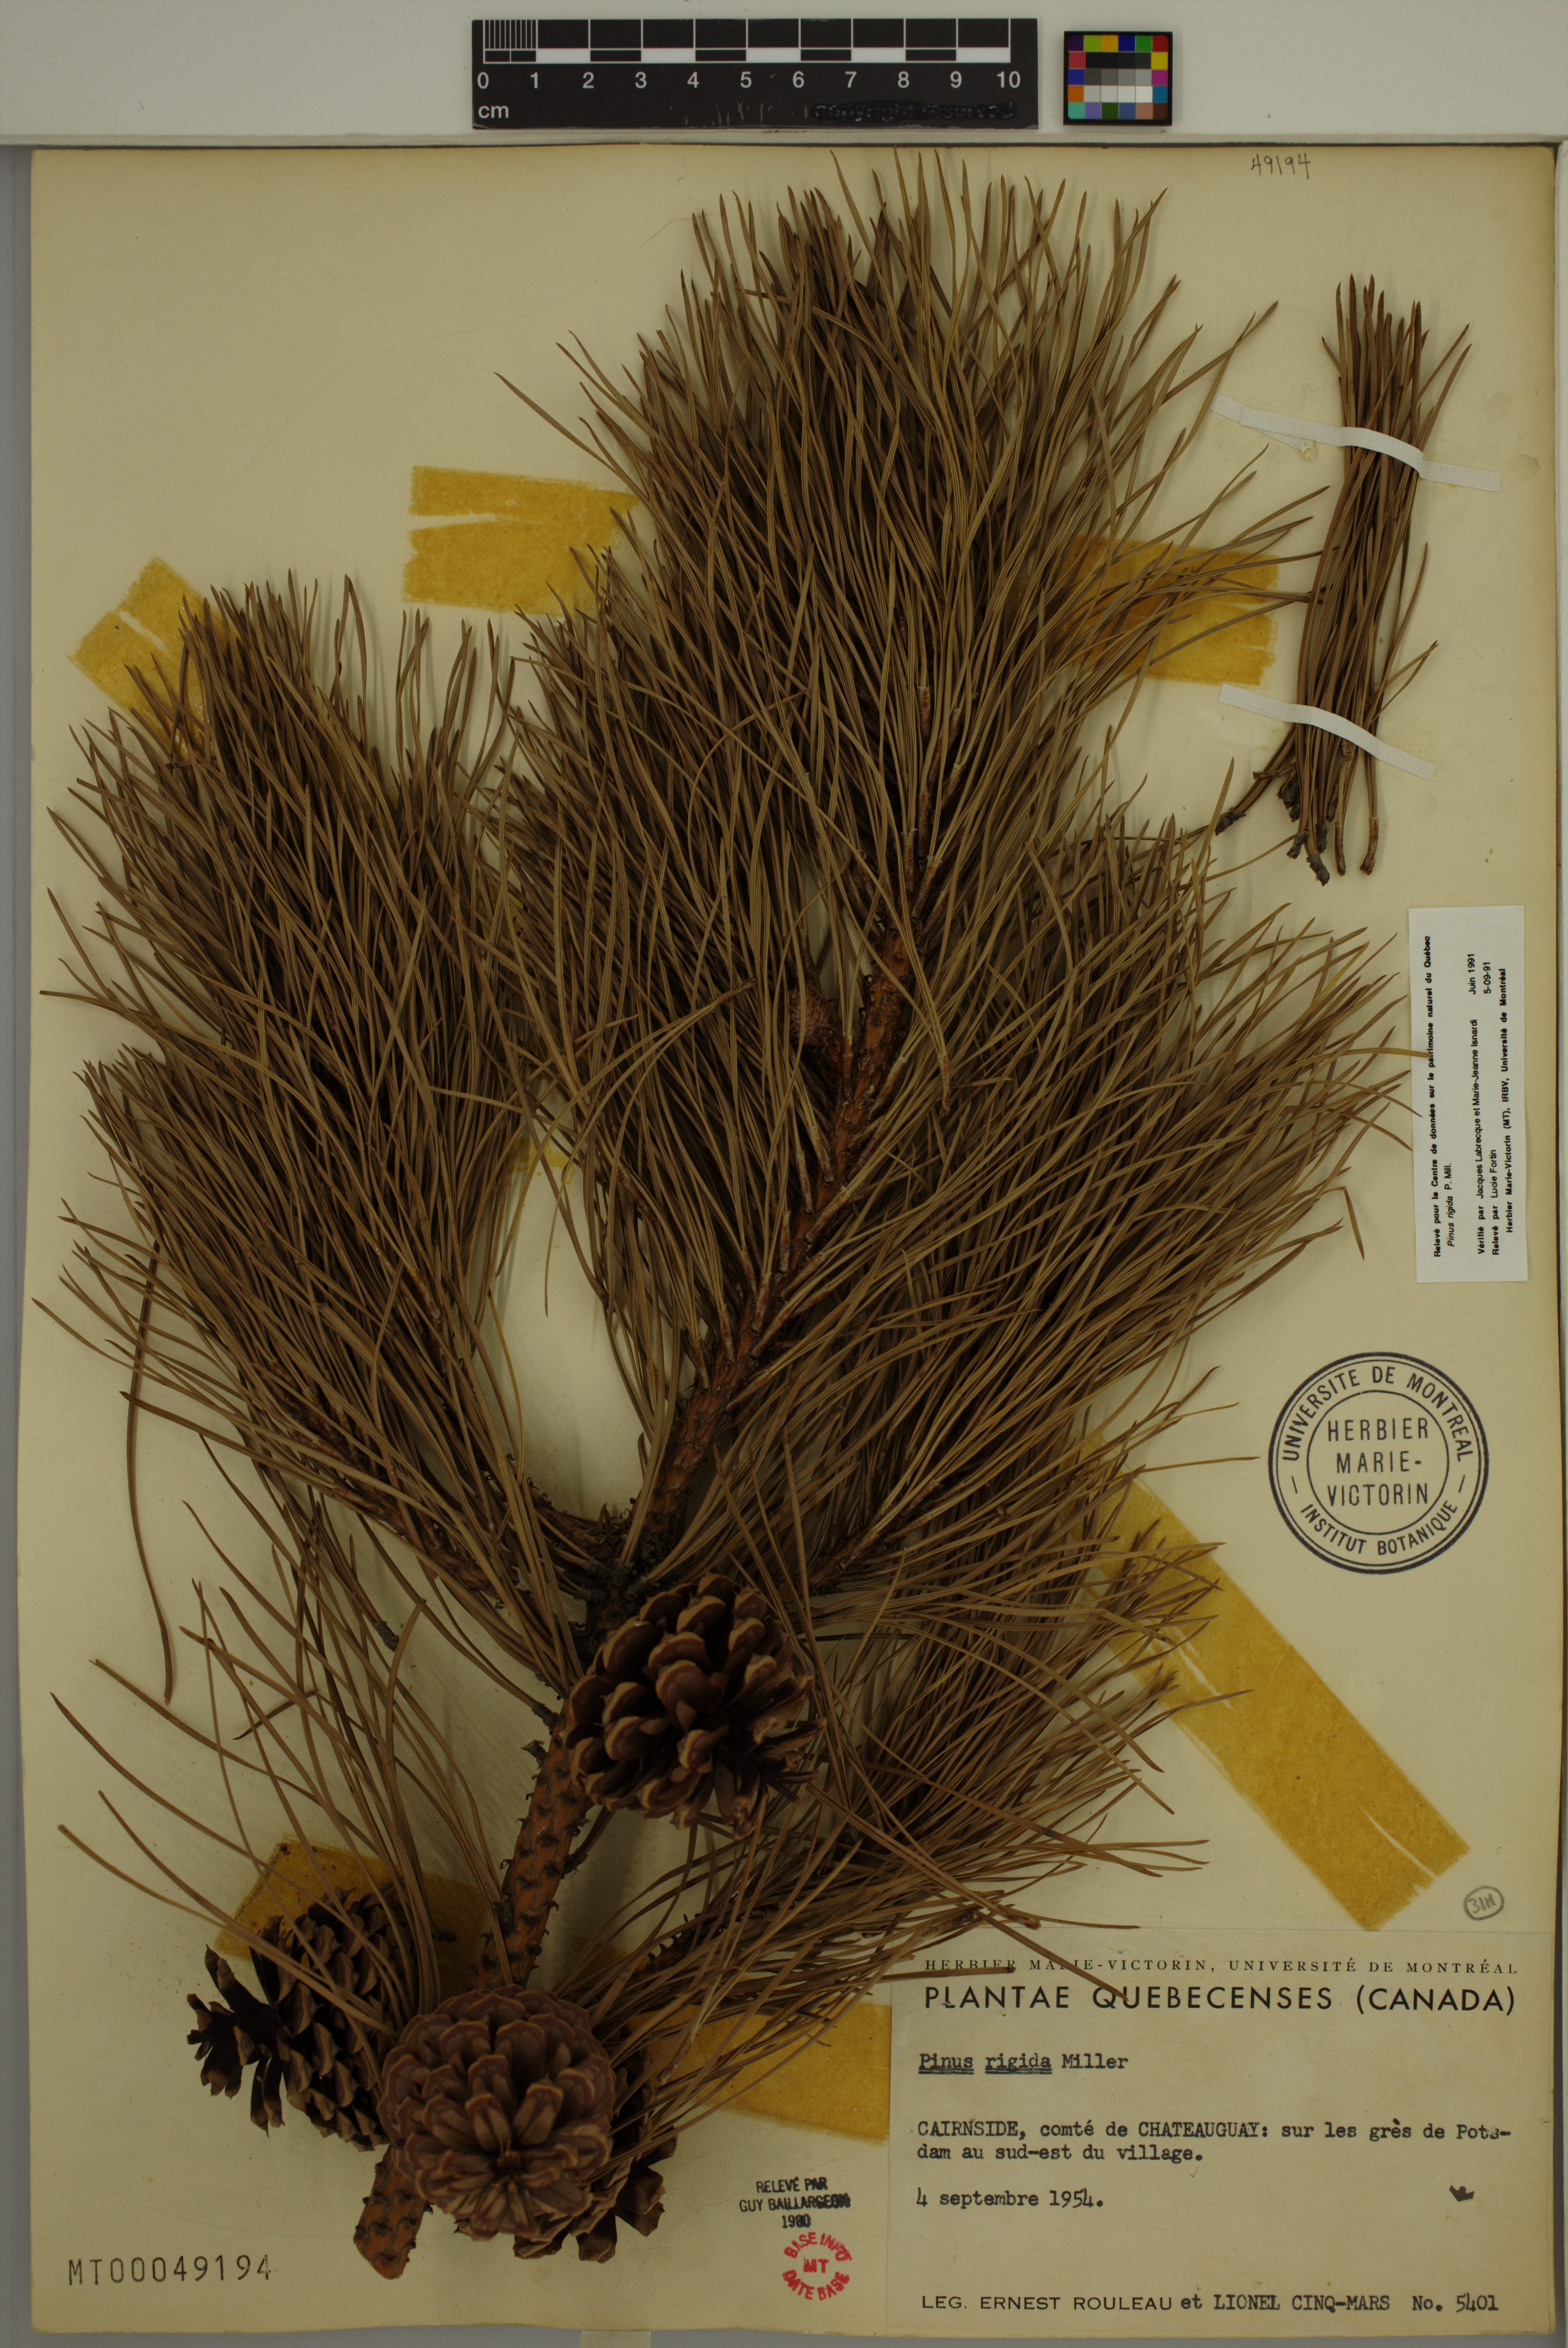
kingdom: Plantae
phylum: Tracheophyta
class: Pinopsida
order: Pinales
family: Pinaceae
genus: Pinus
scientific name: Pinus rigida
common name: Pitch pine
